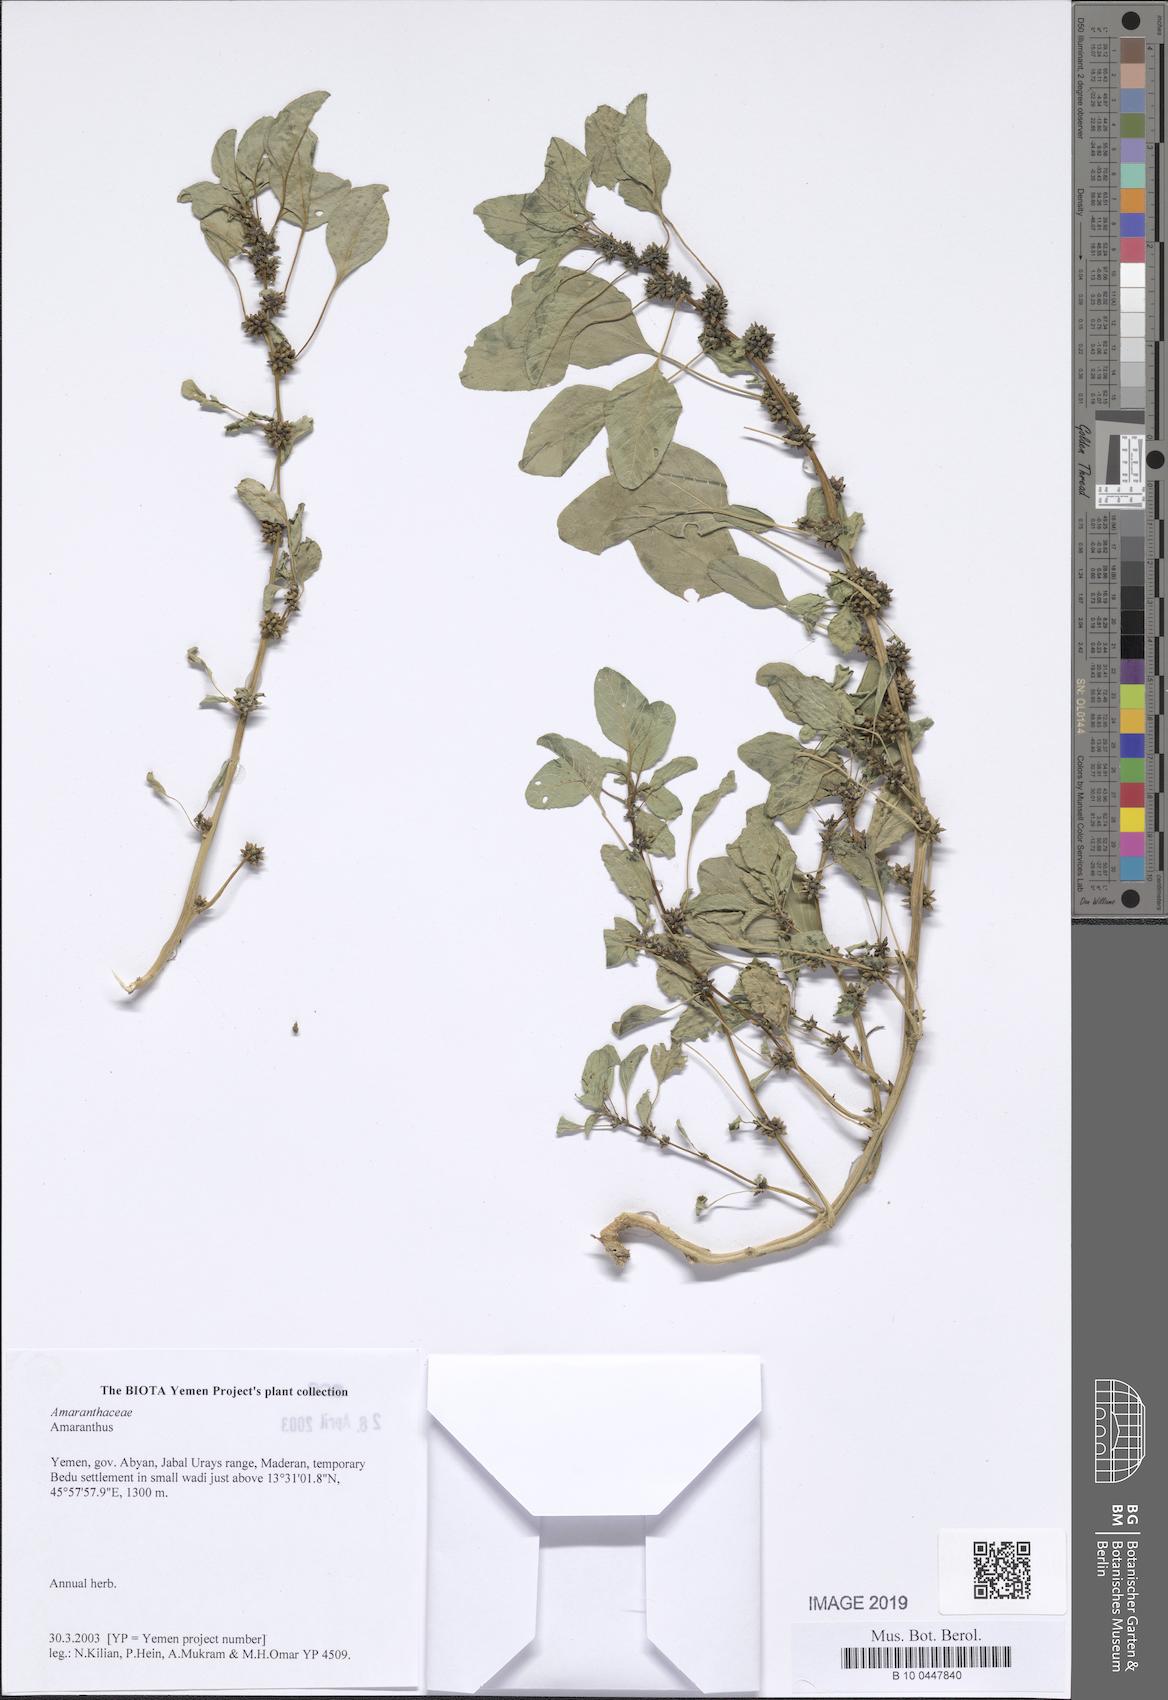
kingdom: Plantae
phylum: Tracheophyta
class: Magnoliopsida
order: Caryophyllales
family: Amaranthaceae
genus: Amaranthus
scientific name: Amaranthus
